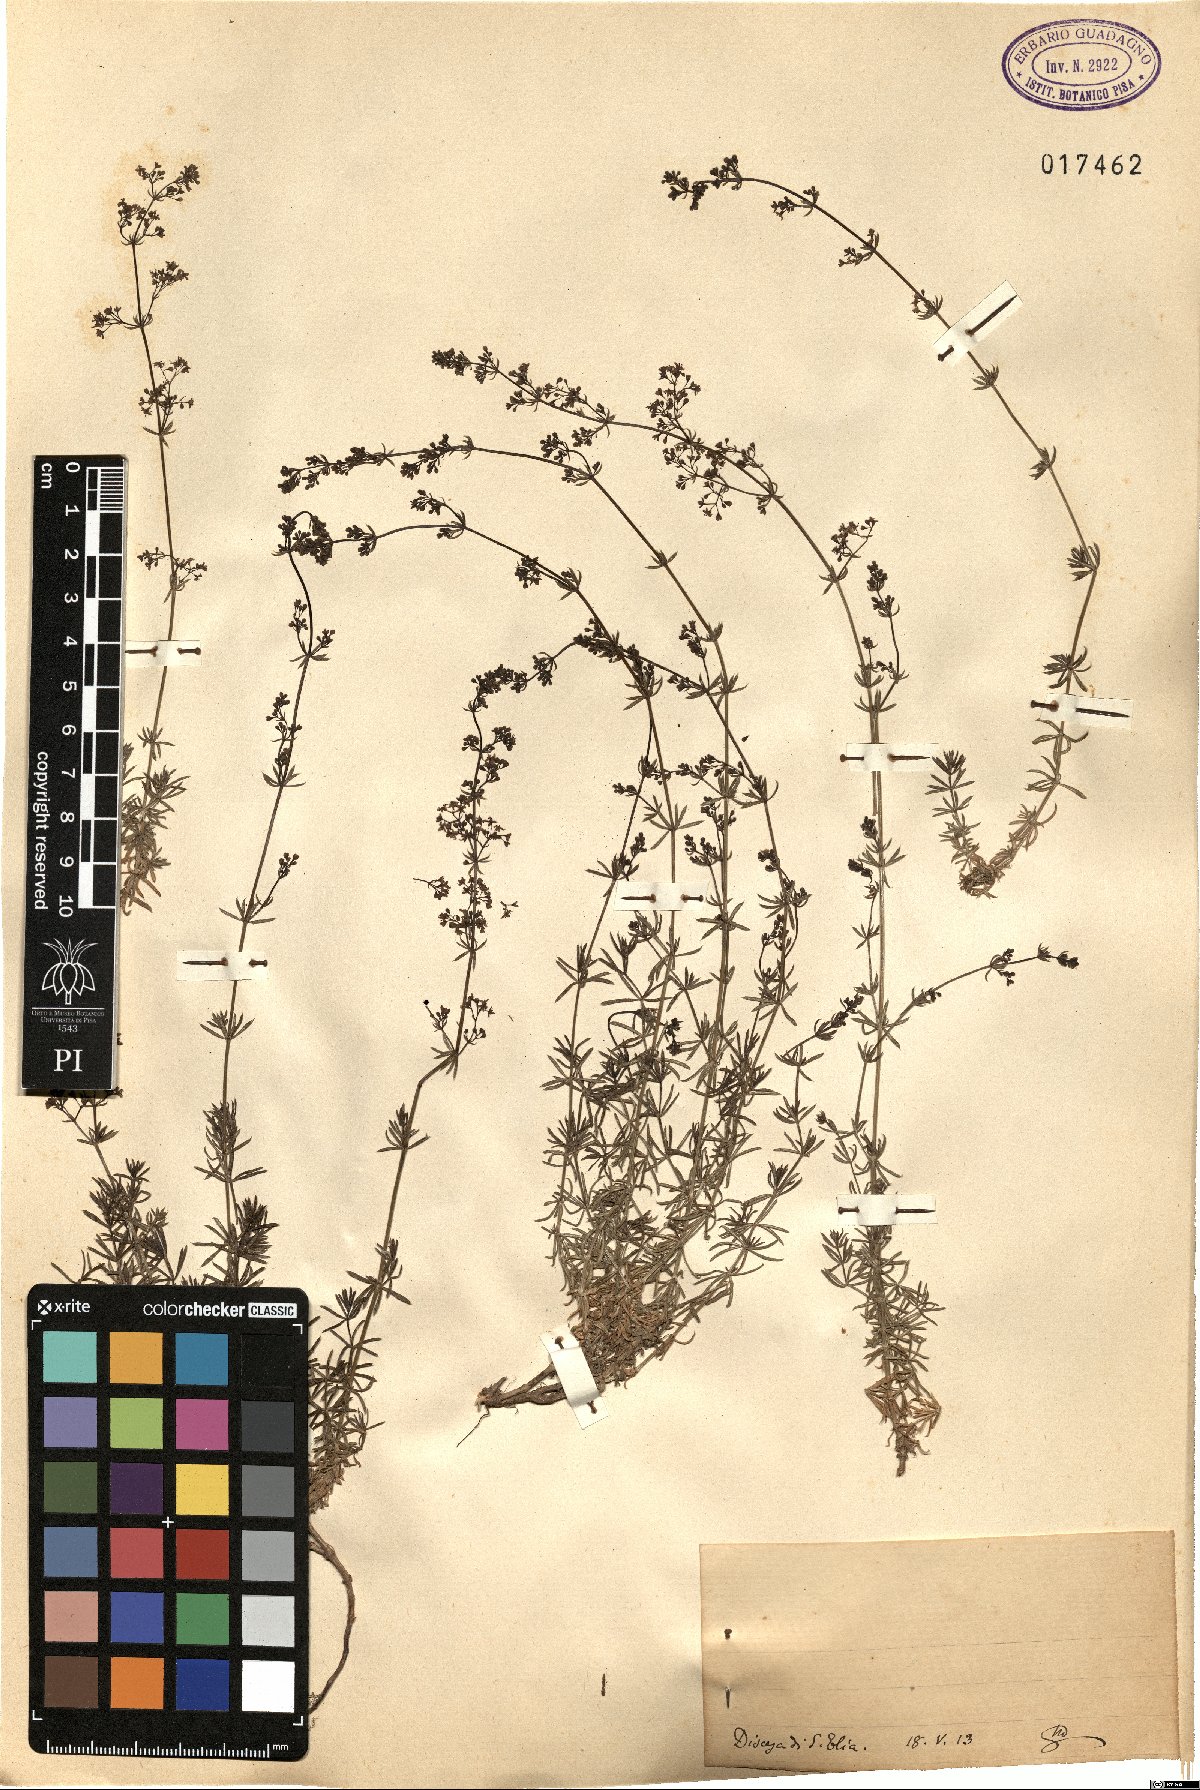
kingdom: Plantae
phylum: Tracheophyta
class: Magnoliopsida
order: Gentianales
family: Rubiaceae
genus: Galium
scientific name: Galium
